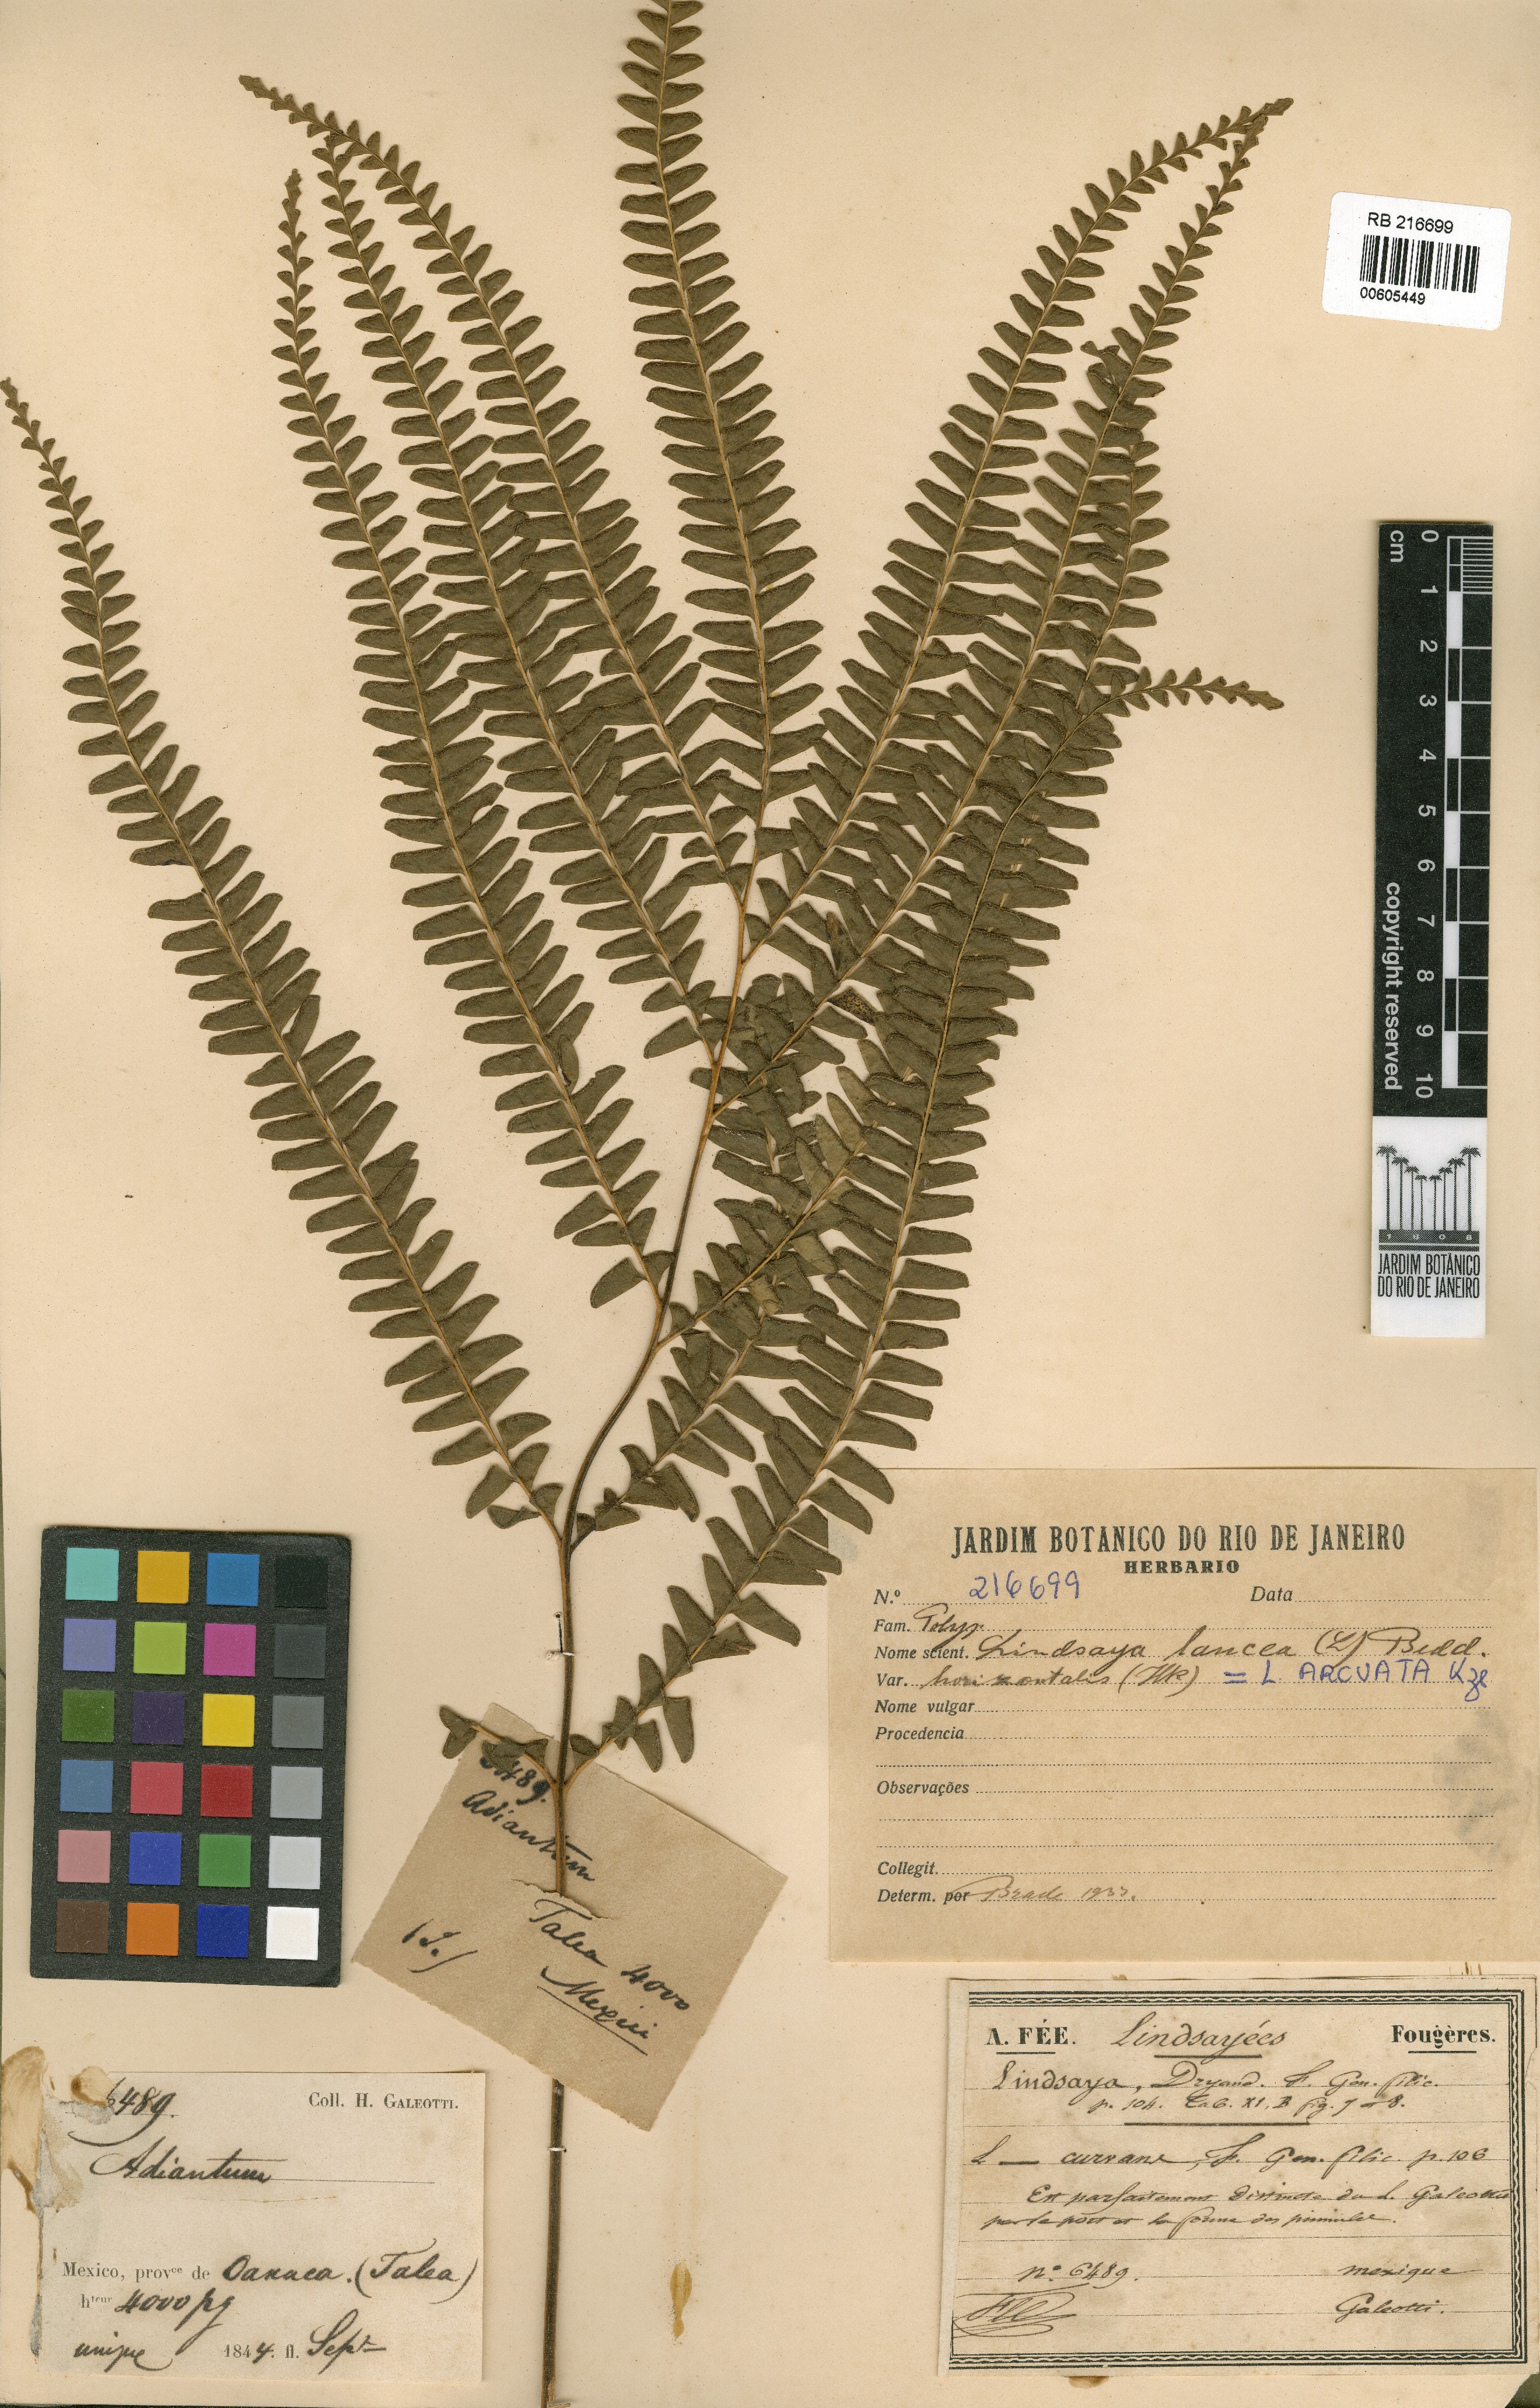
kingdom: Plantae
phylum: Tracheophyta
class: Polypodiopsida
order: Polypodiales
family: Lindsaeaceae
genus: Lindsaea
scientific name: Lindsaea arcuata
